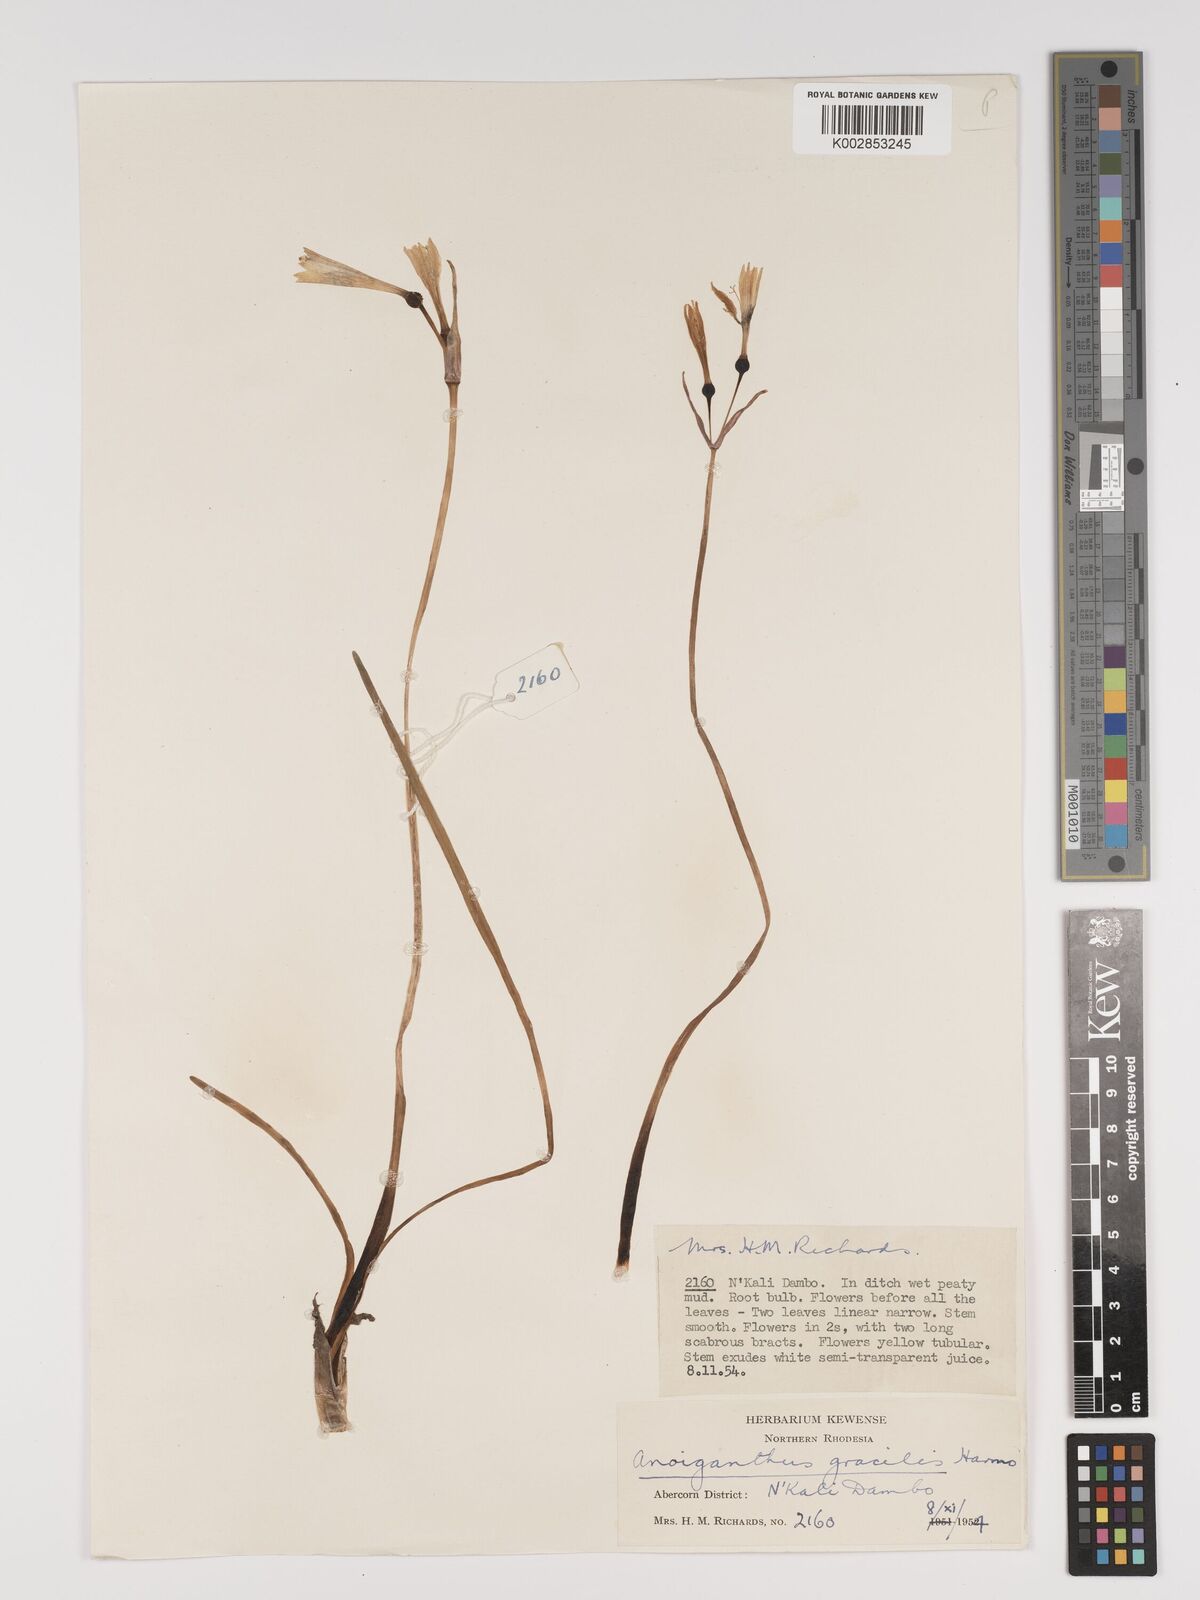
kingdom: Plantae
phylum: Tracheophyta
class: Liliopsida
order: Asparagales
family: Amaryllidaceae
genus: Cyrtanthus
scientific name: Cyrtanthus breviflorus
